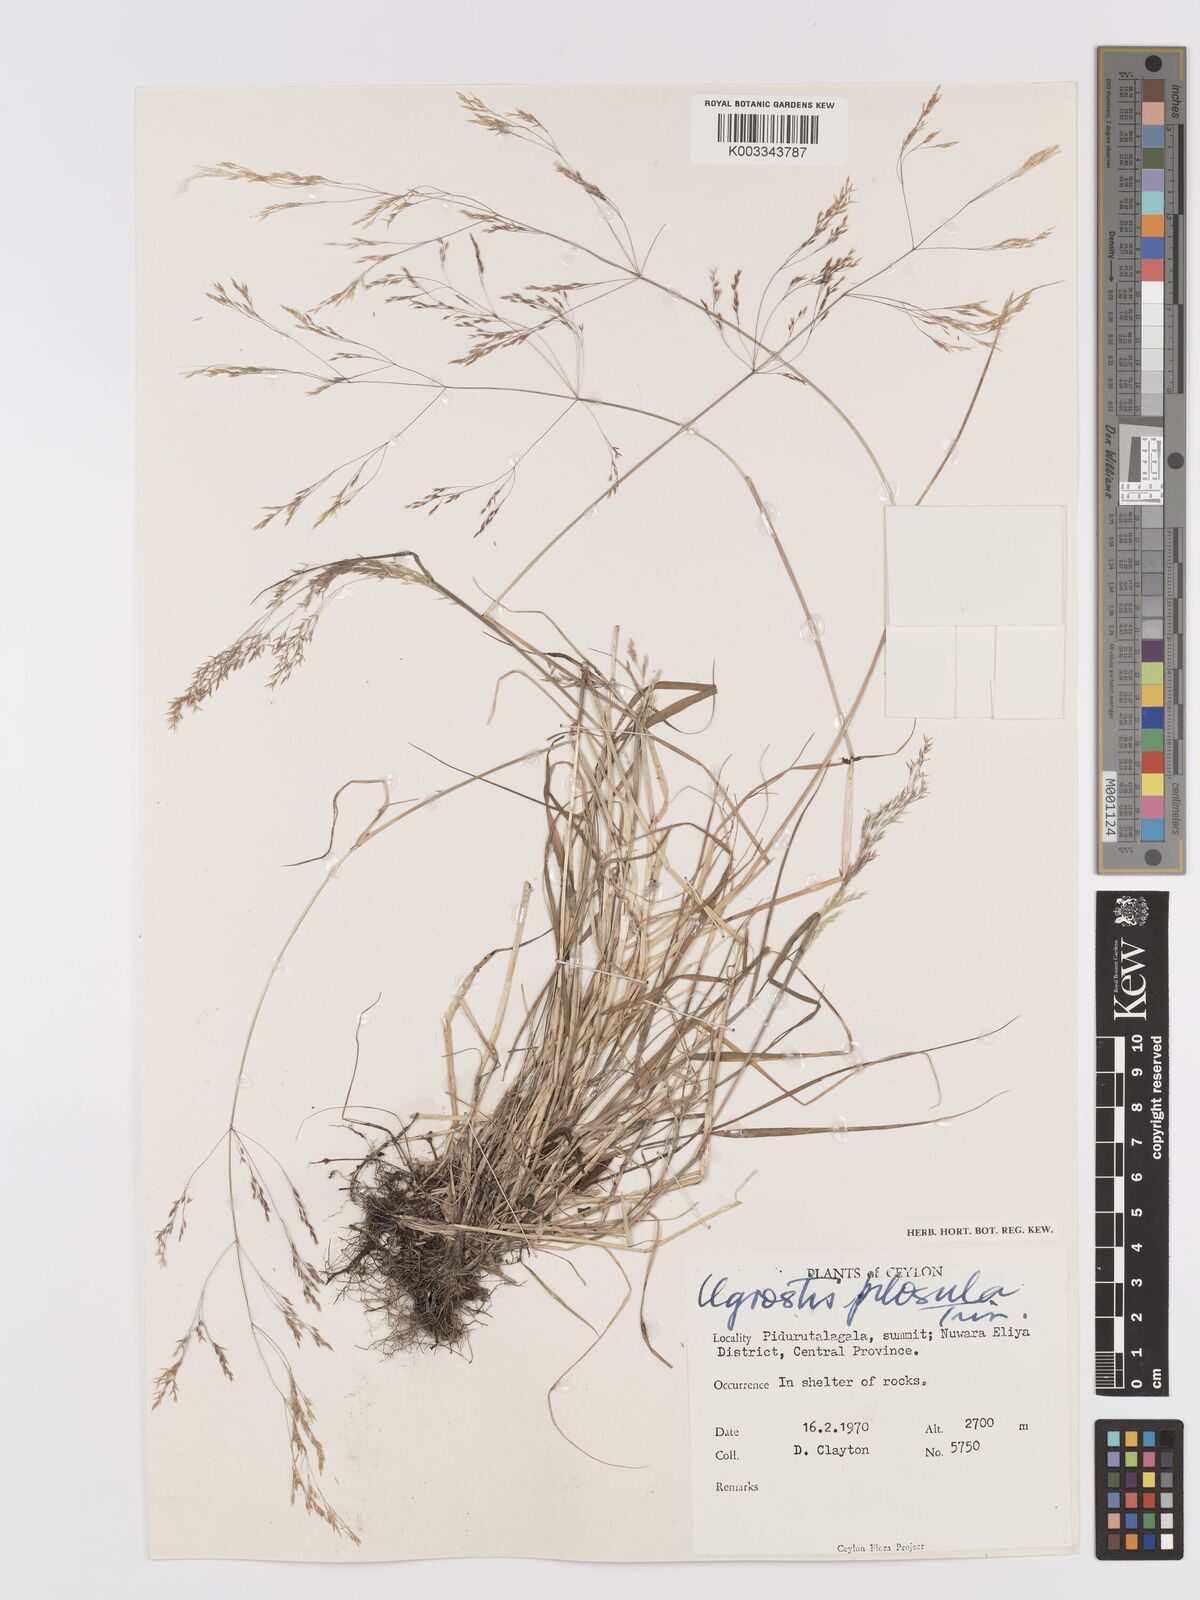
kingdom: Plantae
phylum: Tracheophyta
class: Liliopsida
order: Poales
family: Poaceae
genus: Agrostis
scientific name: Agrostis pilosula
